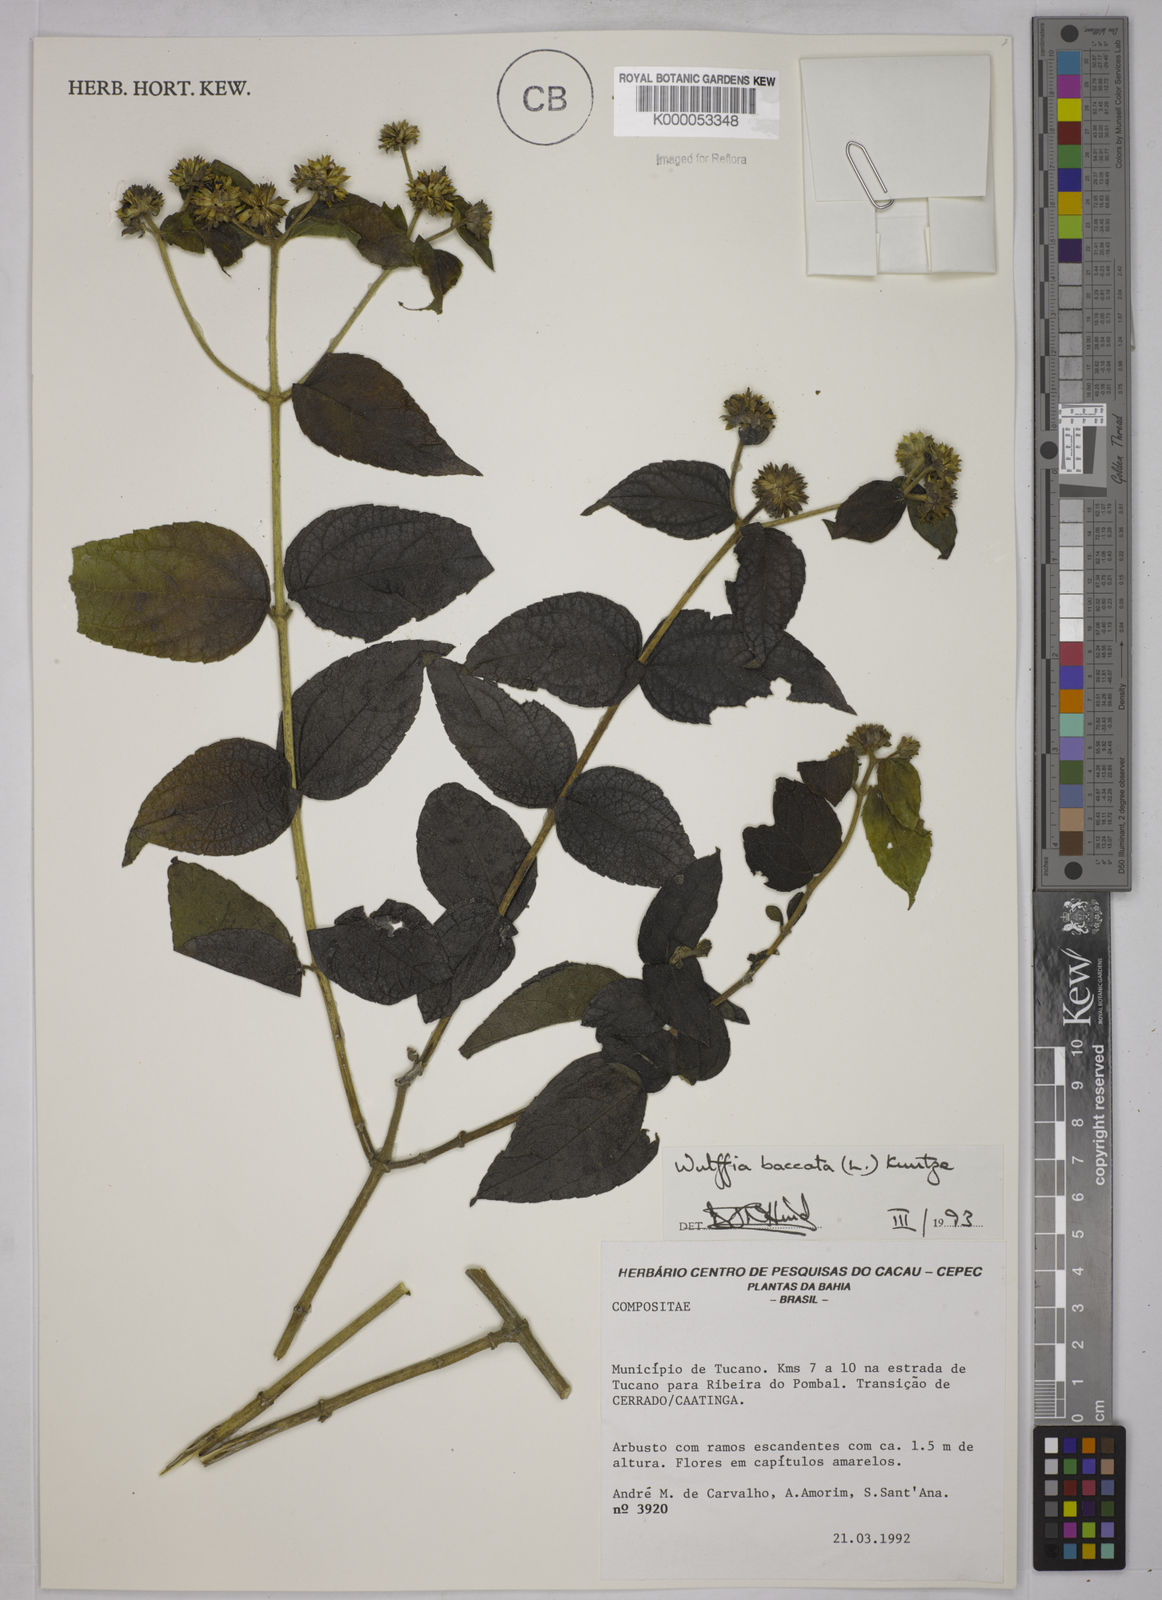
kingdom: Plantae
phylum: Tracheophyta
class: Magnoliopsida
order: Asterales
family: Asteraceae
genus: Tilesia
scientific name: Tilesia baccata
